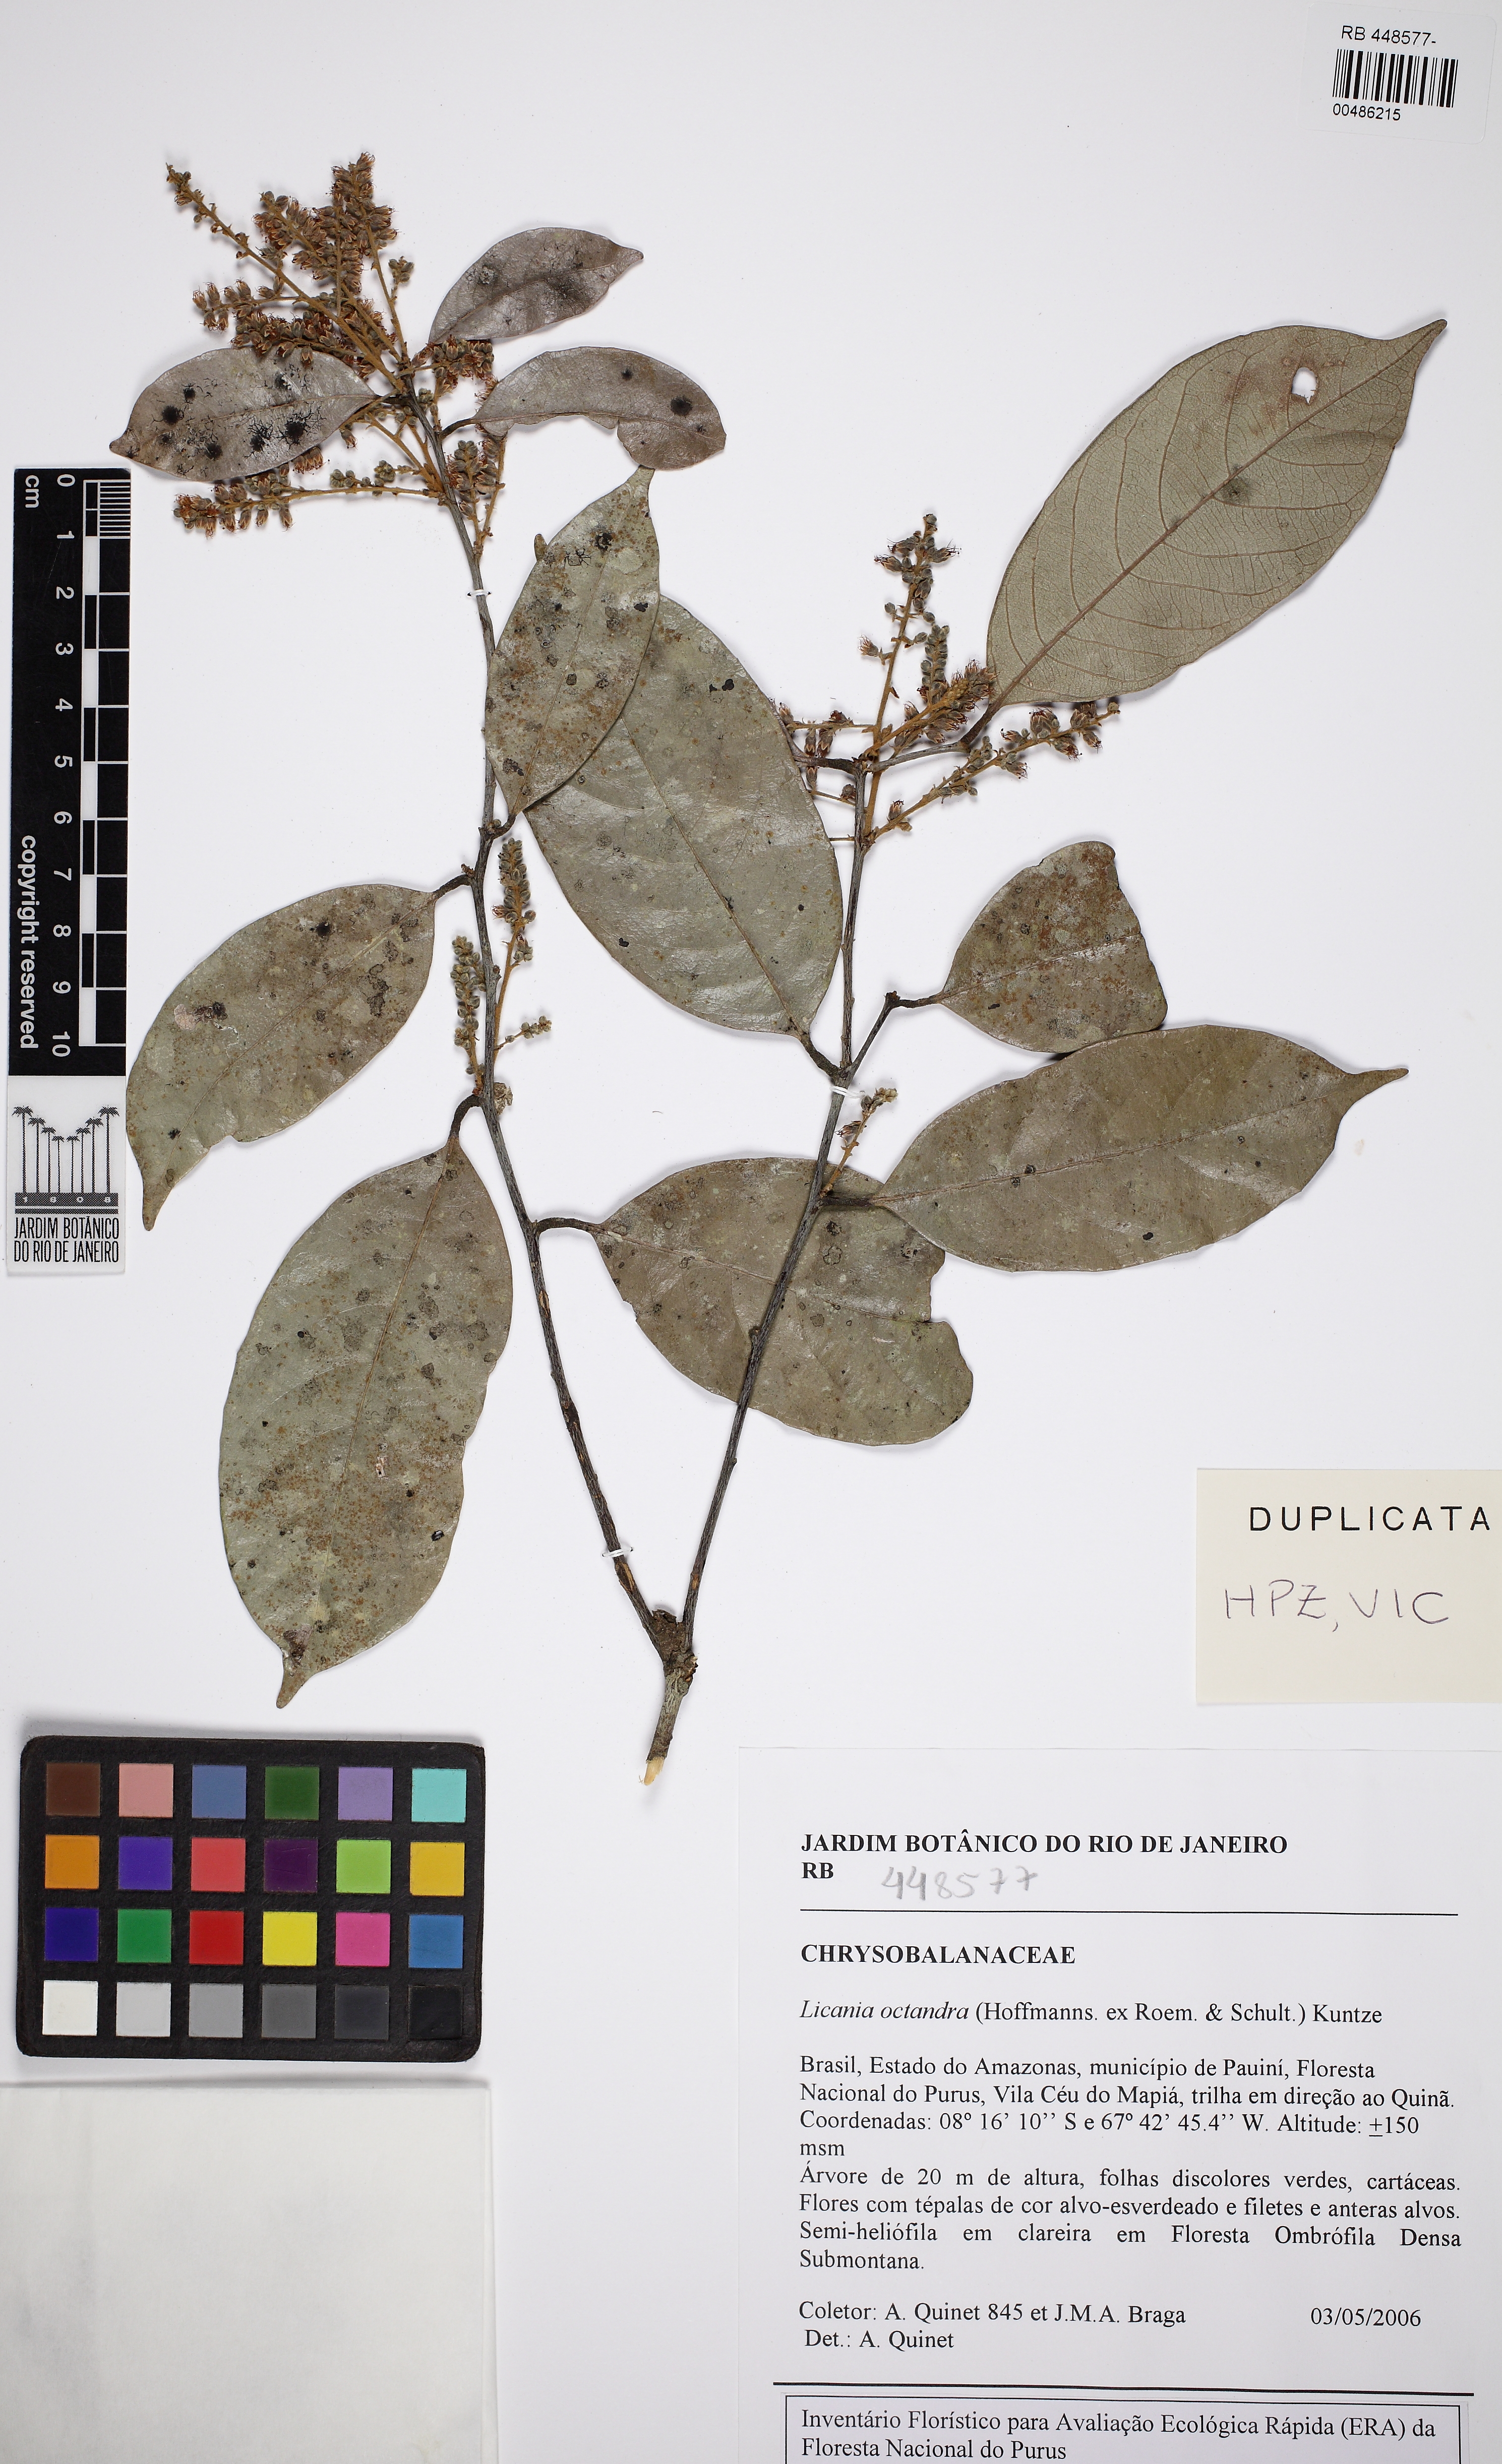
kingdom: Plantae
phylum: Tracheophyta
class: Magnoliopsida
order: Malpighiales
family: Chrysobalanaceae
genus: Leptobalanus
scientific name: Leptobalanus octandrus
